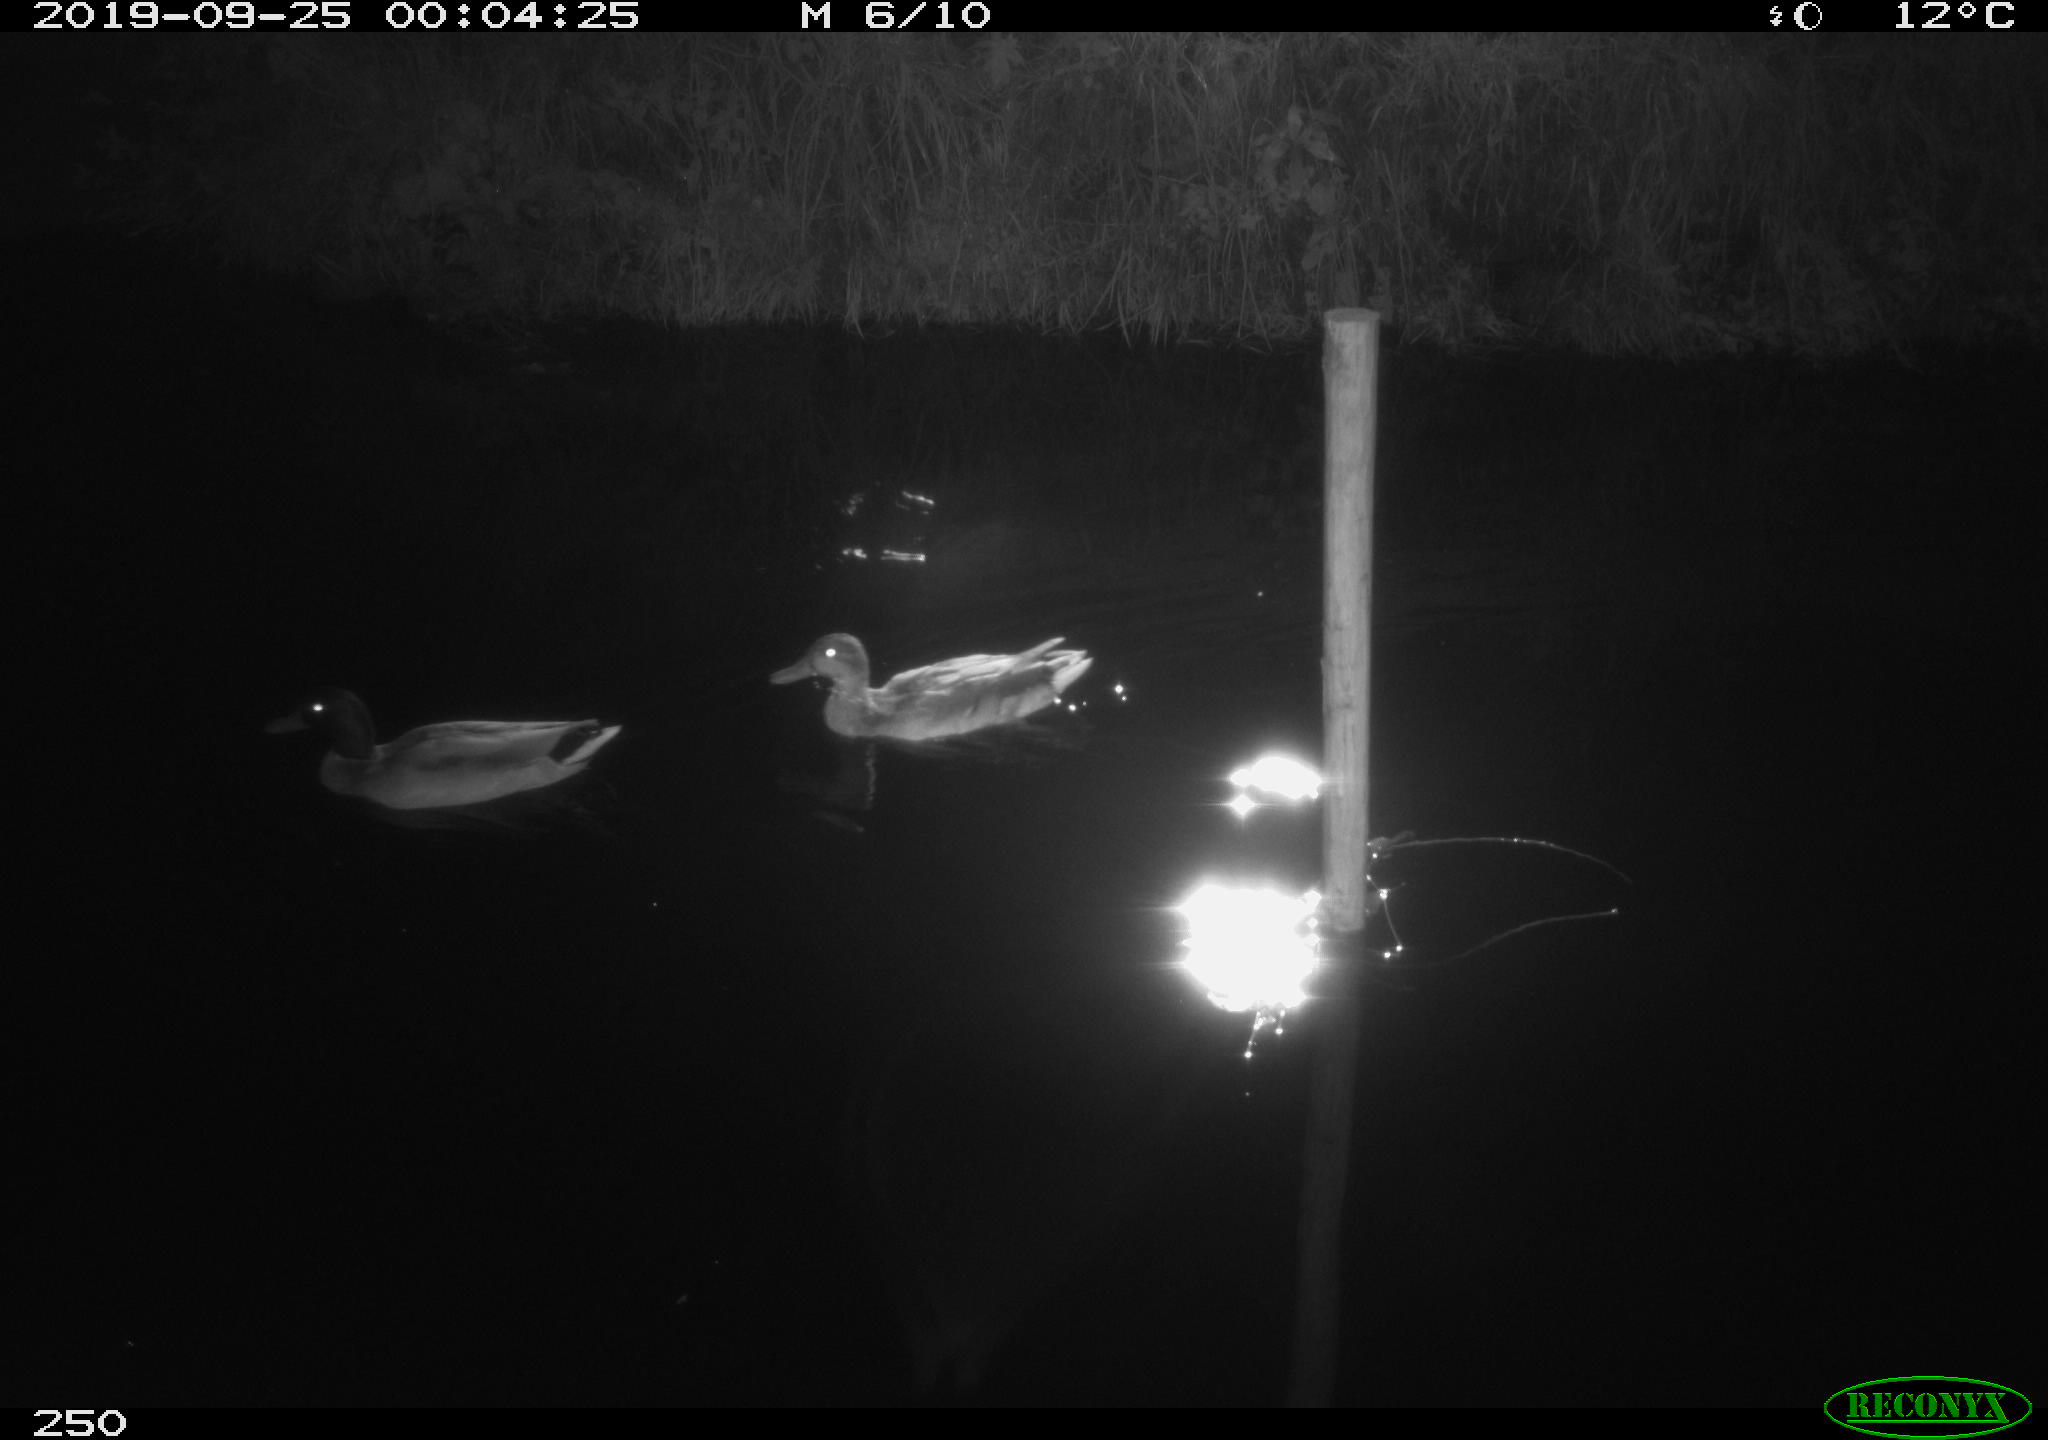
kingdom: Animalia
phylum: Chordata
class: Aves
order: Anseriformes
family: Anatidae
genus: Anas
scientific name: Anas platyrhynchos
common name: Mallard
